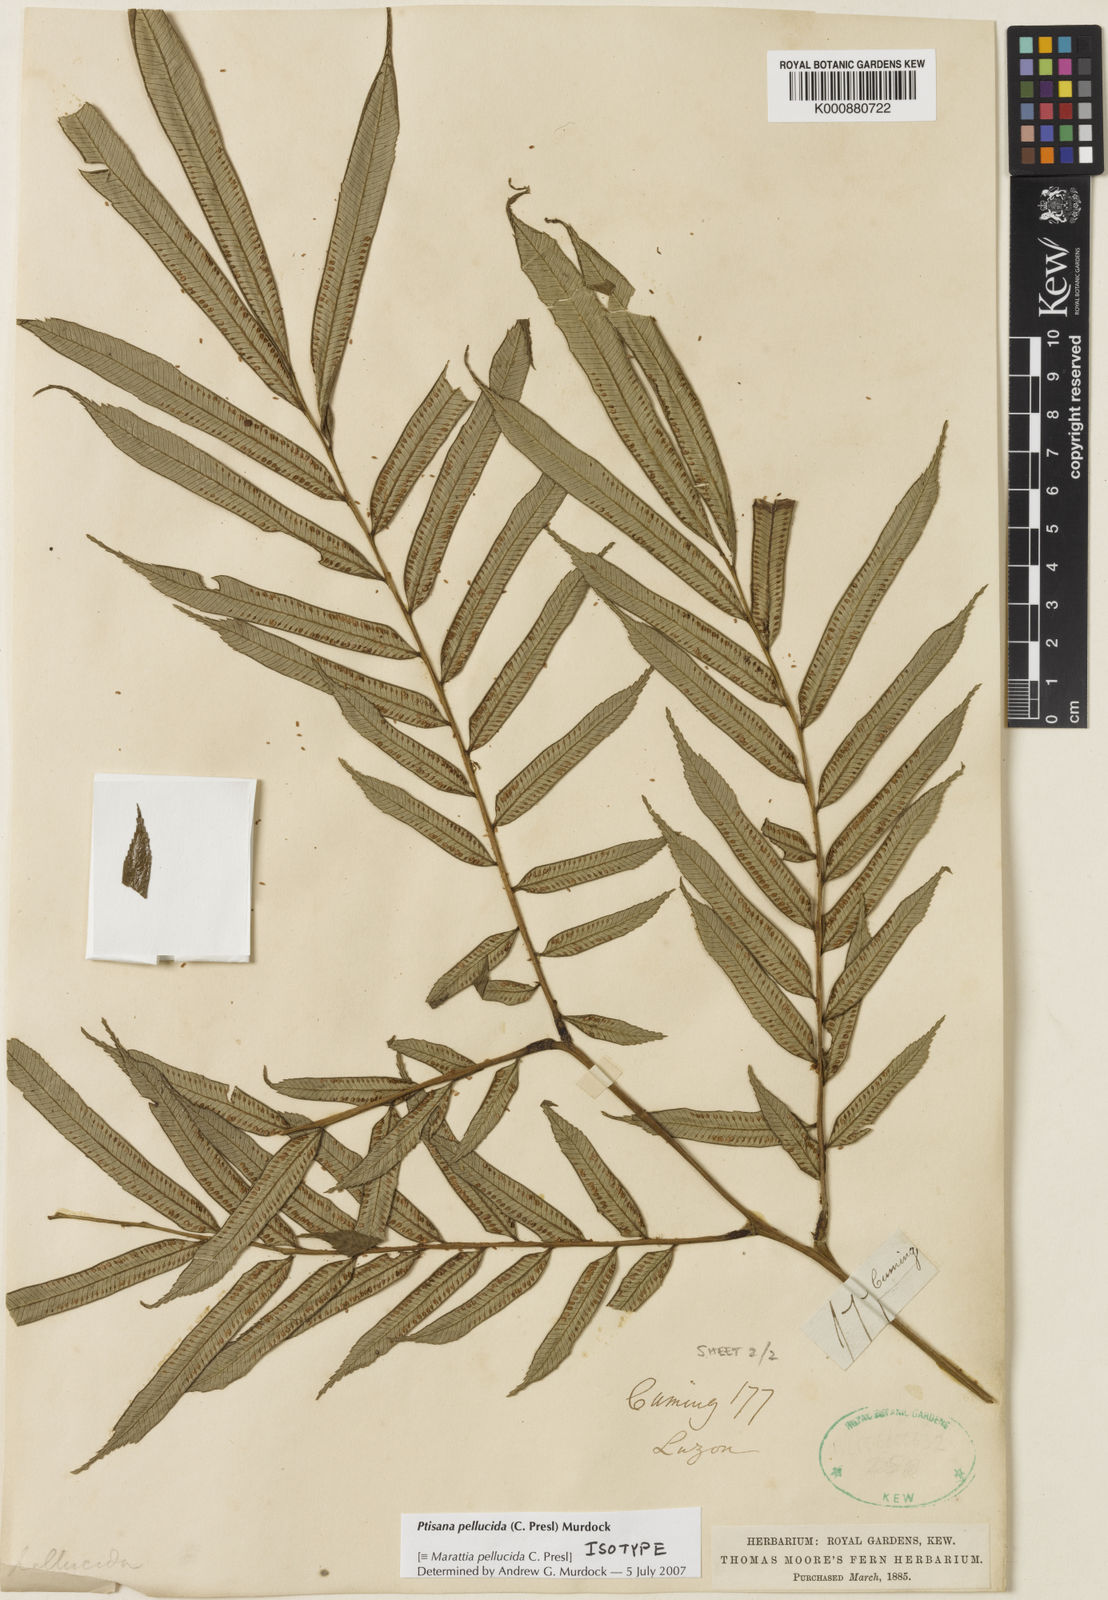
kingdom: Plantae
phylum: Tracheophyta
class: Polypodiopsida
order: Marattiales
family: Marattiaceae
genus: Ptisana
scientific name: Ptisana pellucida
